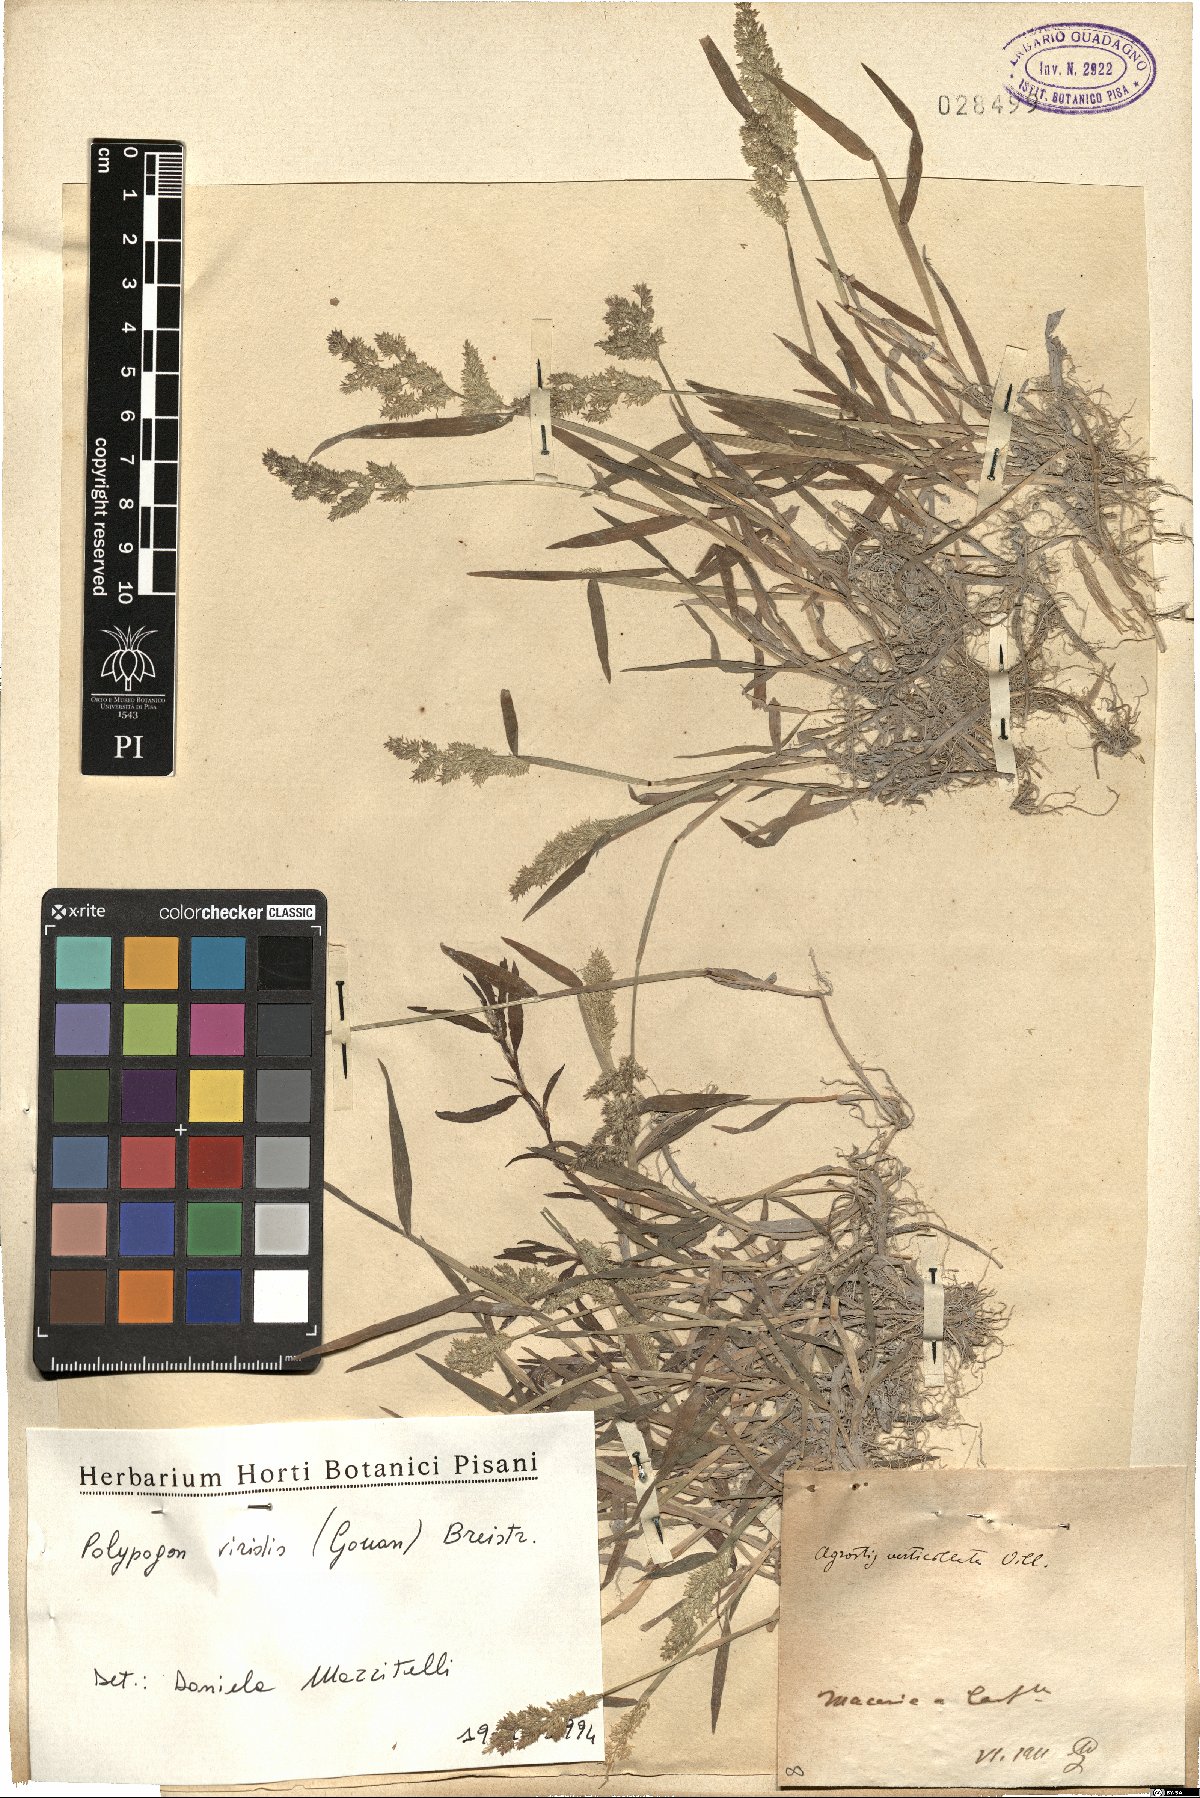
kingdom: Plantae
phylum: Tracheophyta
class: Liliopsida
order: Poales
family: Poaceae
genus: Polypogon
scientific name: Polypogon viridis
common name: Water bent
